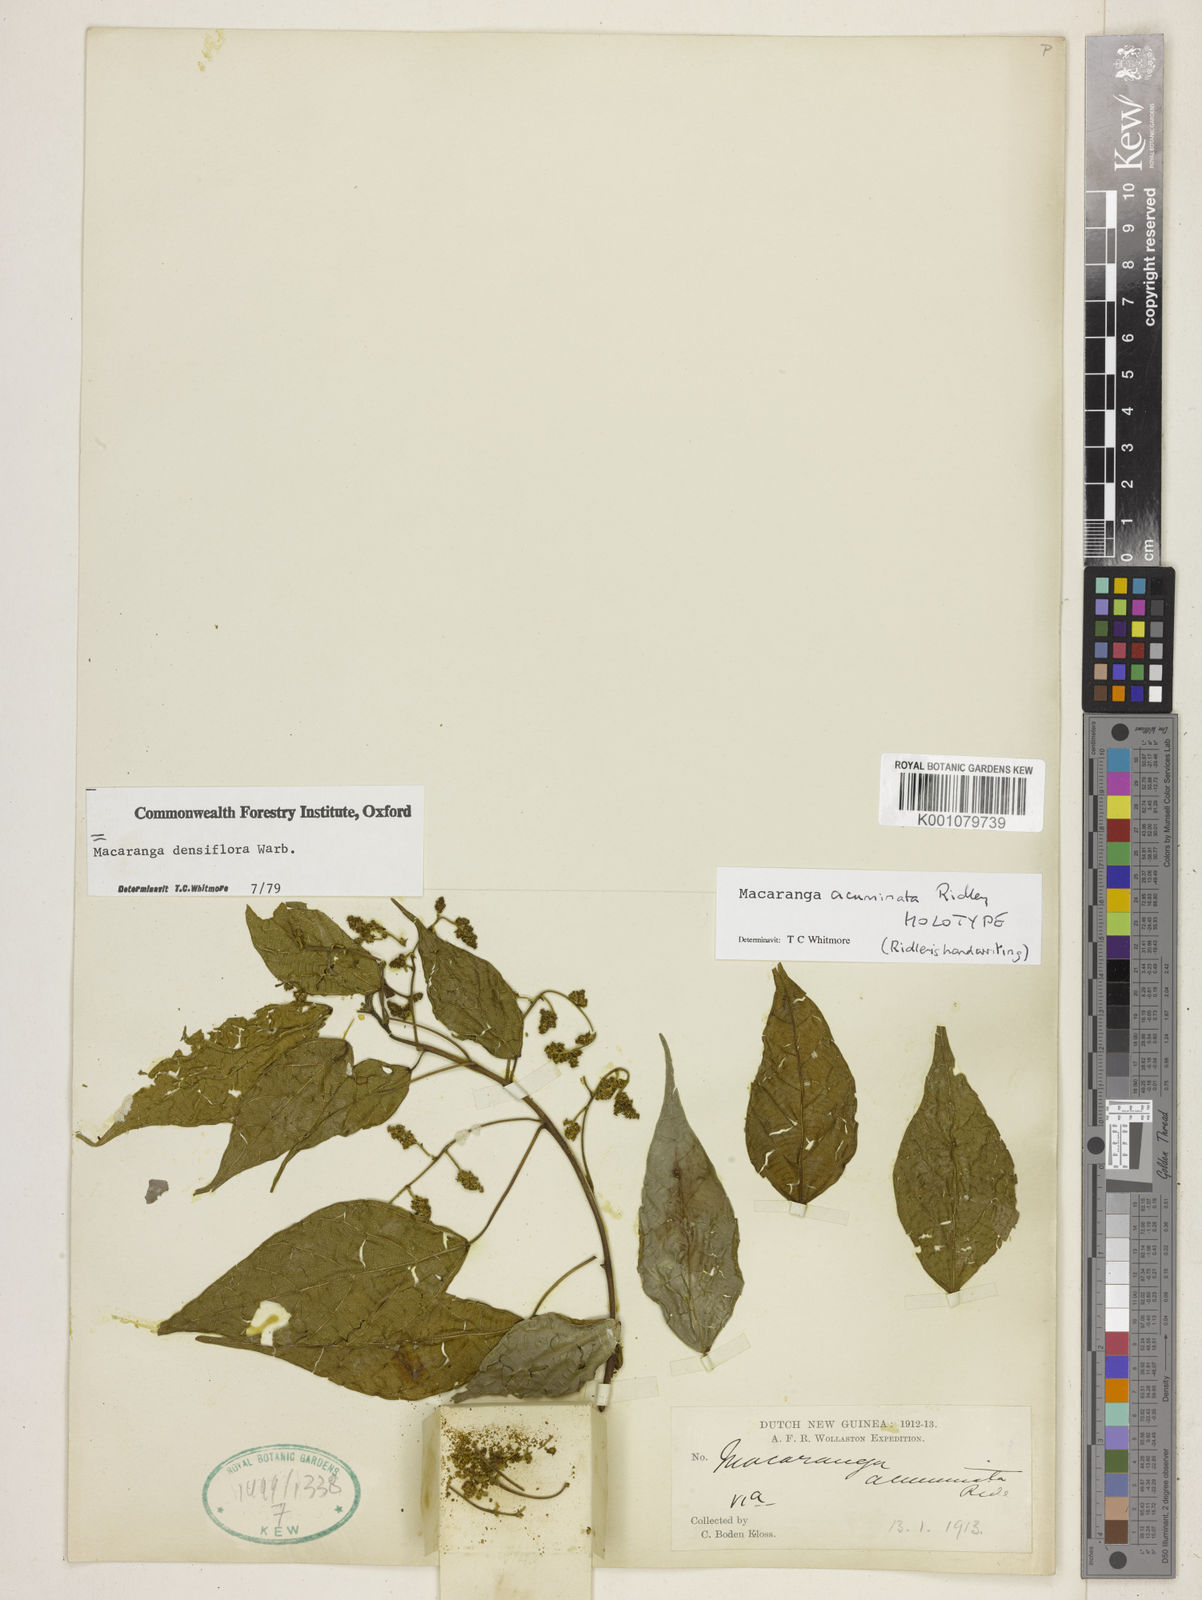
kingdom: Plantae
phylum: Tracheophyta
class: Magnoliopsida
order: Malpighiales
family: Euphorbiaceae
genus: Macaranga
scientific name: Macaranga densiflora
